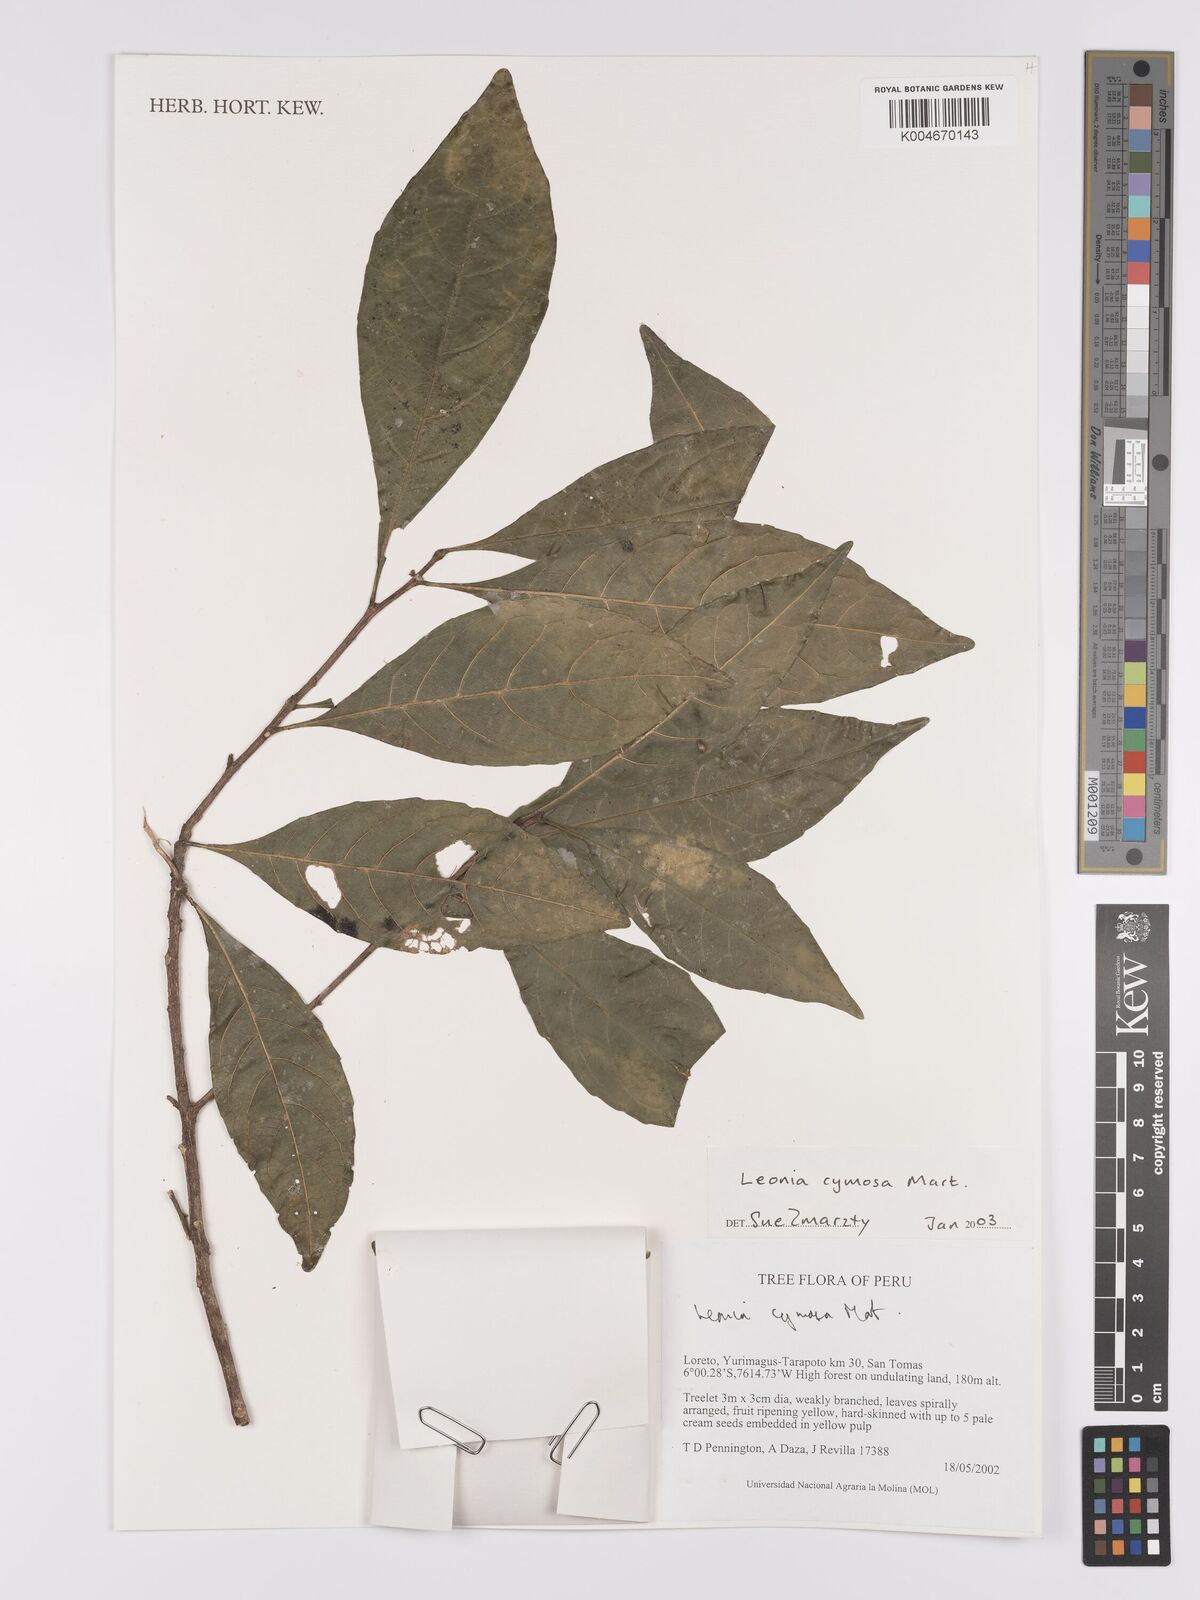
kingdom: Plantae
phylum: Tracheophyta
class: Magnoliopsida
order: Malpighiales
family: Violaceae
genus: Leonia
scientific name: Leonia cymosa
